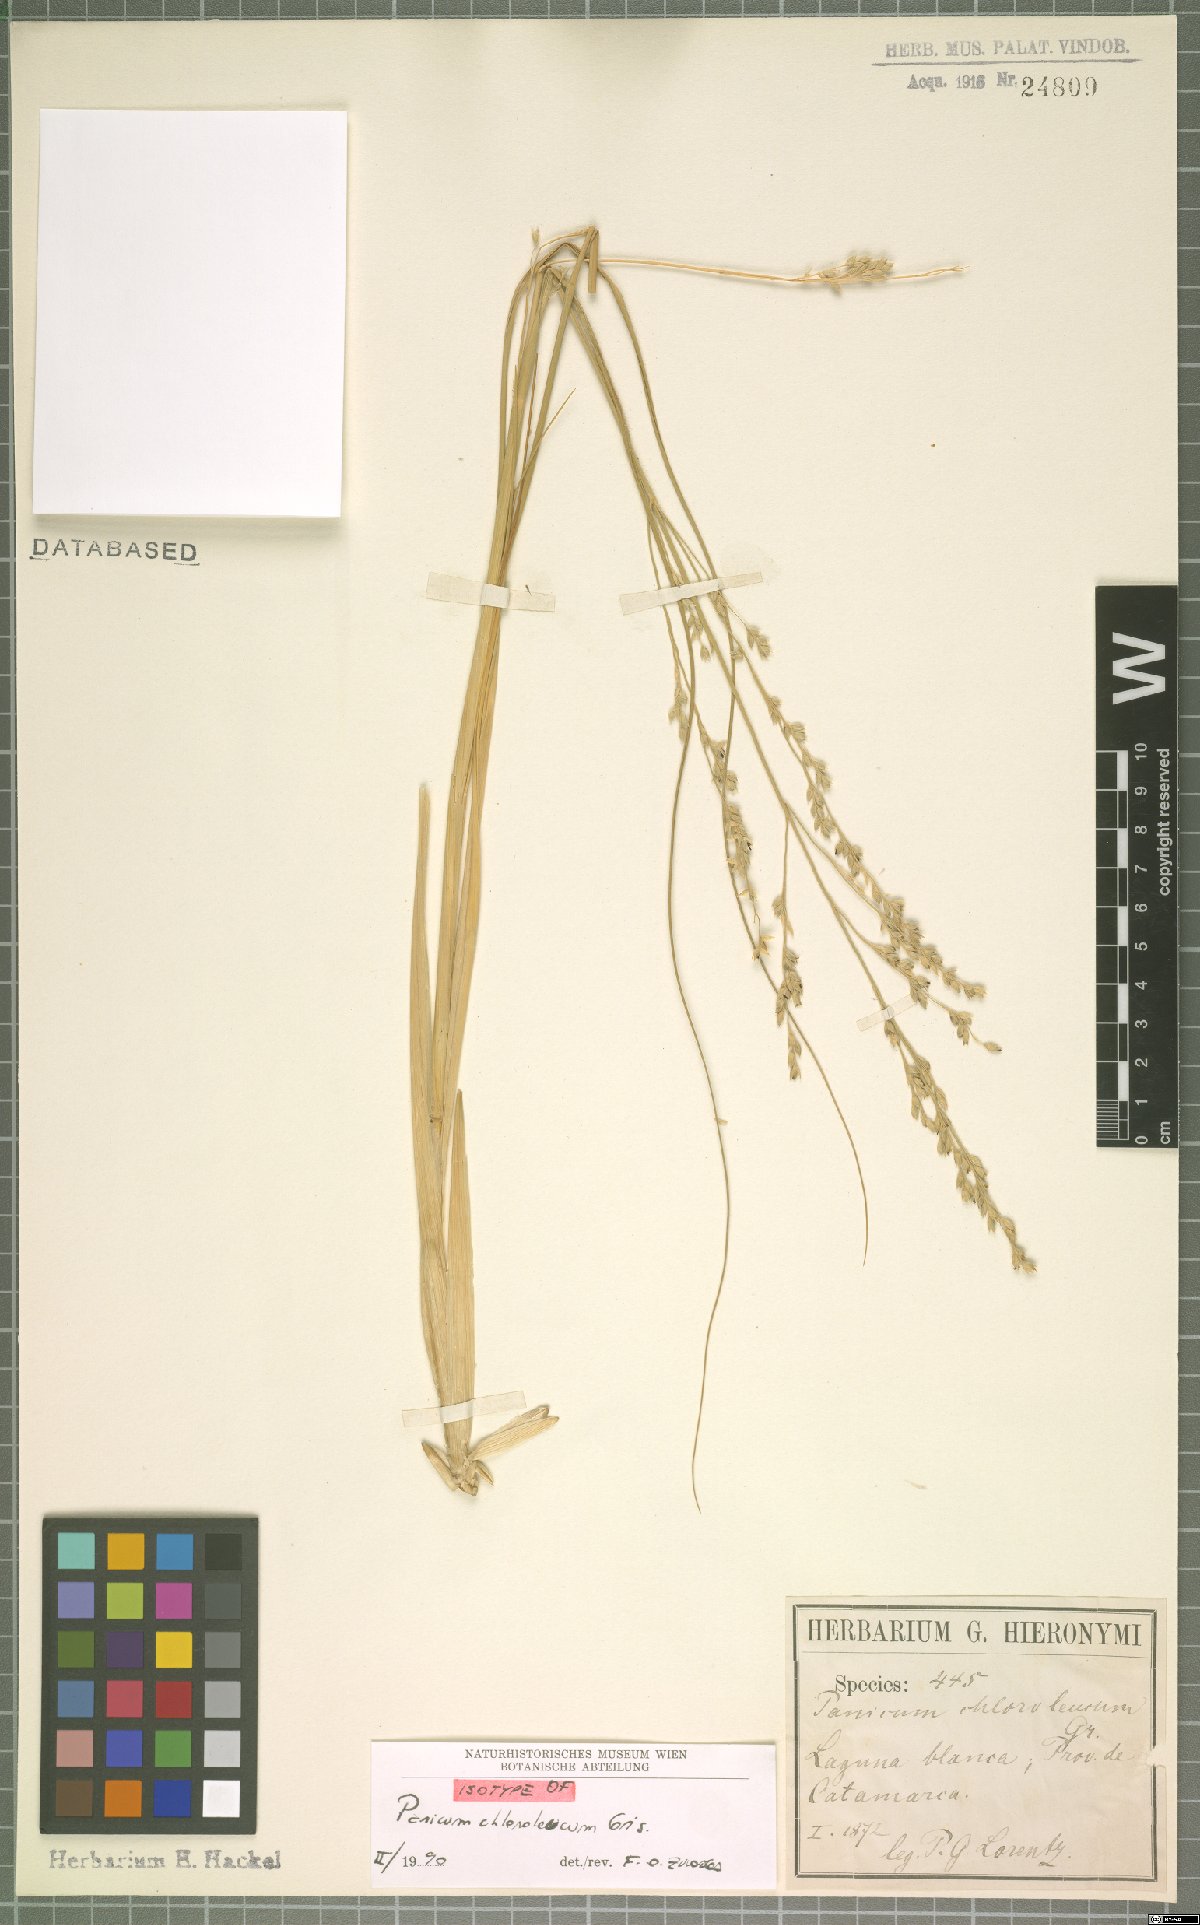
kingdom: Plantae
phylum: Tracheophyta
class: Liliopsida
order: Poales
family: Poaceae
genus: Panicum
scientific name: Panicum chloroleucum
